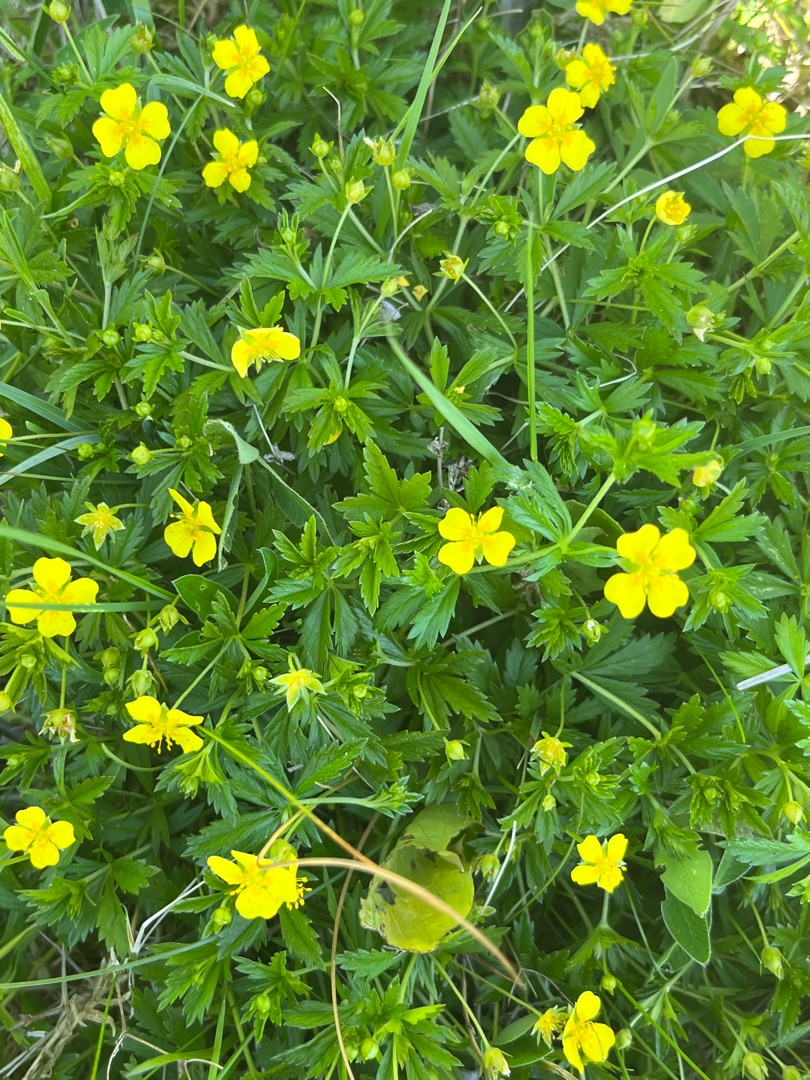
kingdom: Plantae
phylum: Tracheophyta
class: Magnoliopsida
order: Rosales
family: Rosaceae
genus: Potentilla
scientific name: Potentilla erecta
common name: Tormentil
